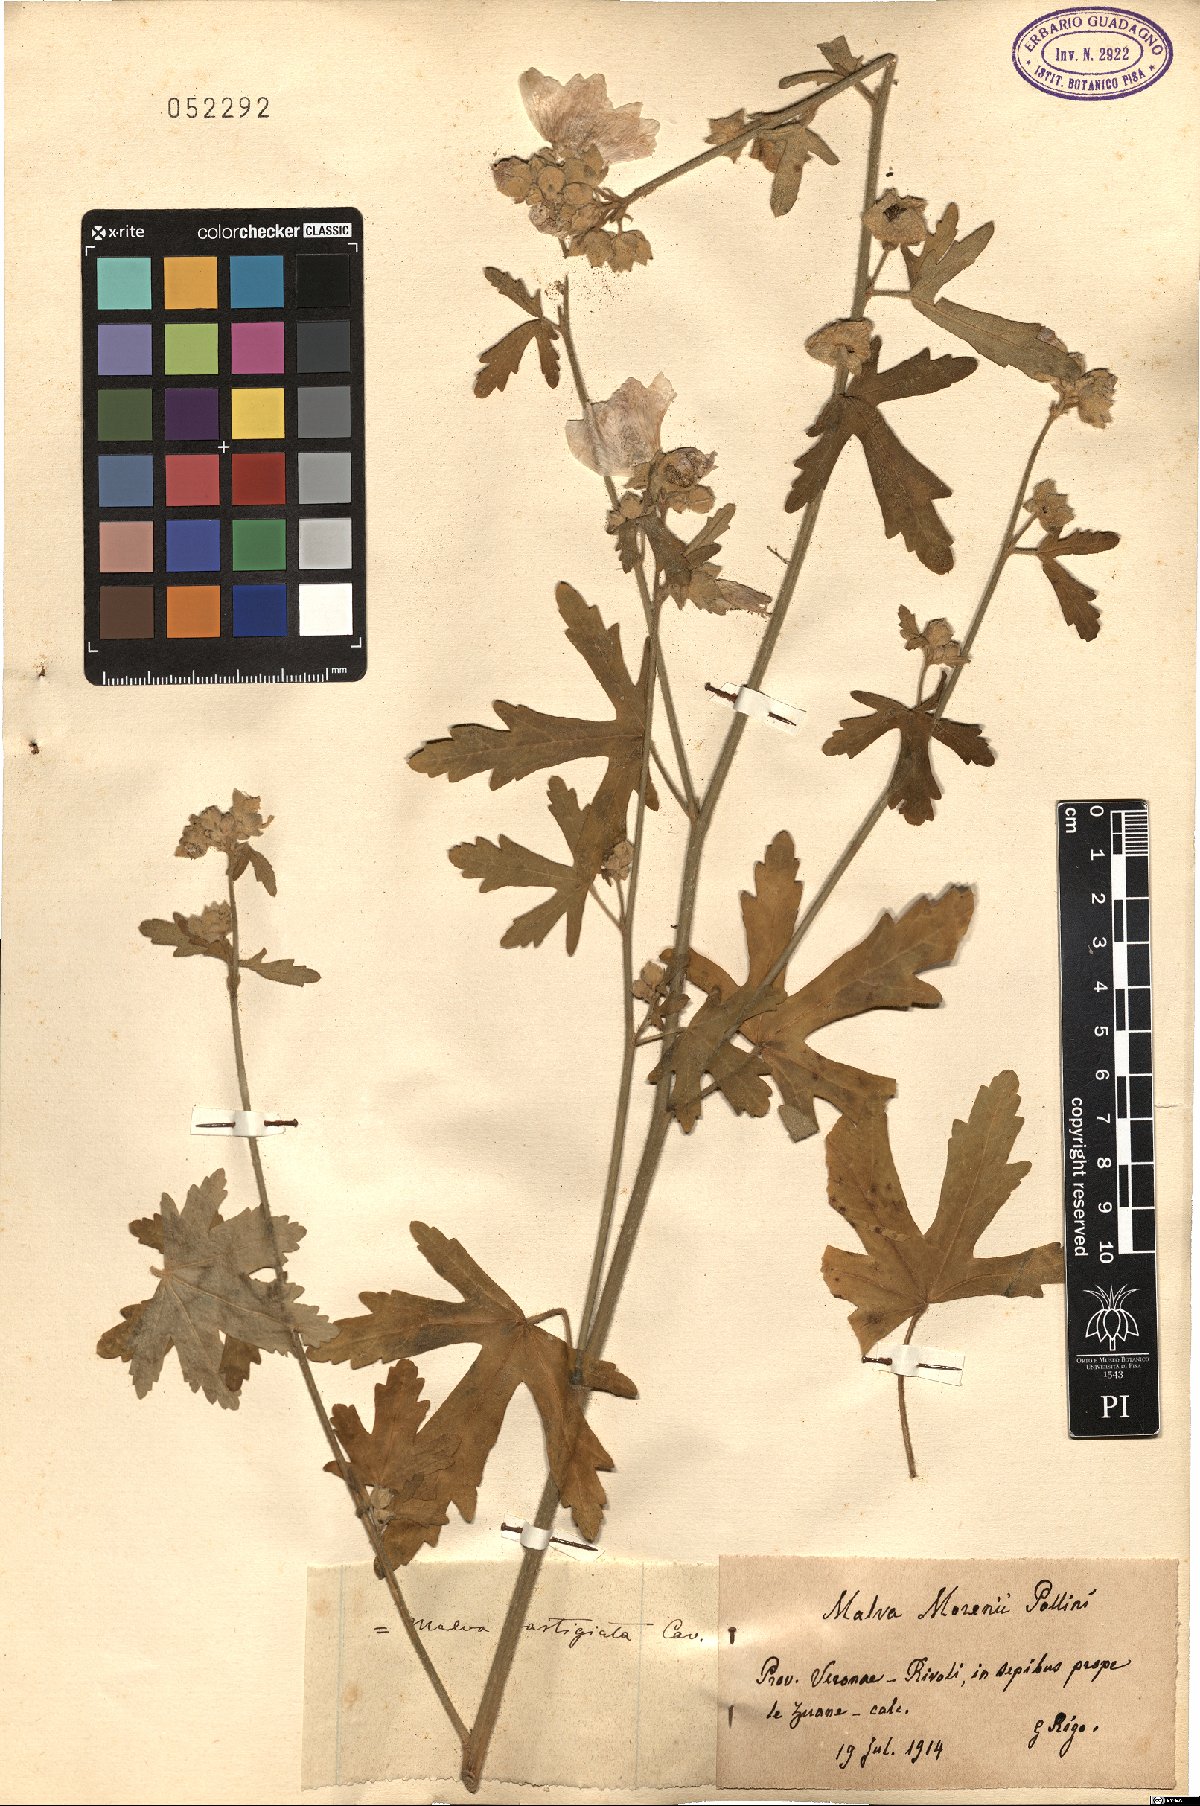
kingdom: Plantae
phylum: Tracheophyta
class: Magnoliopsida
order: Malvales
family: Malvaceae
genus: Malva
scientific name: Malva alcea
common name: Greater musk-mallow
